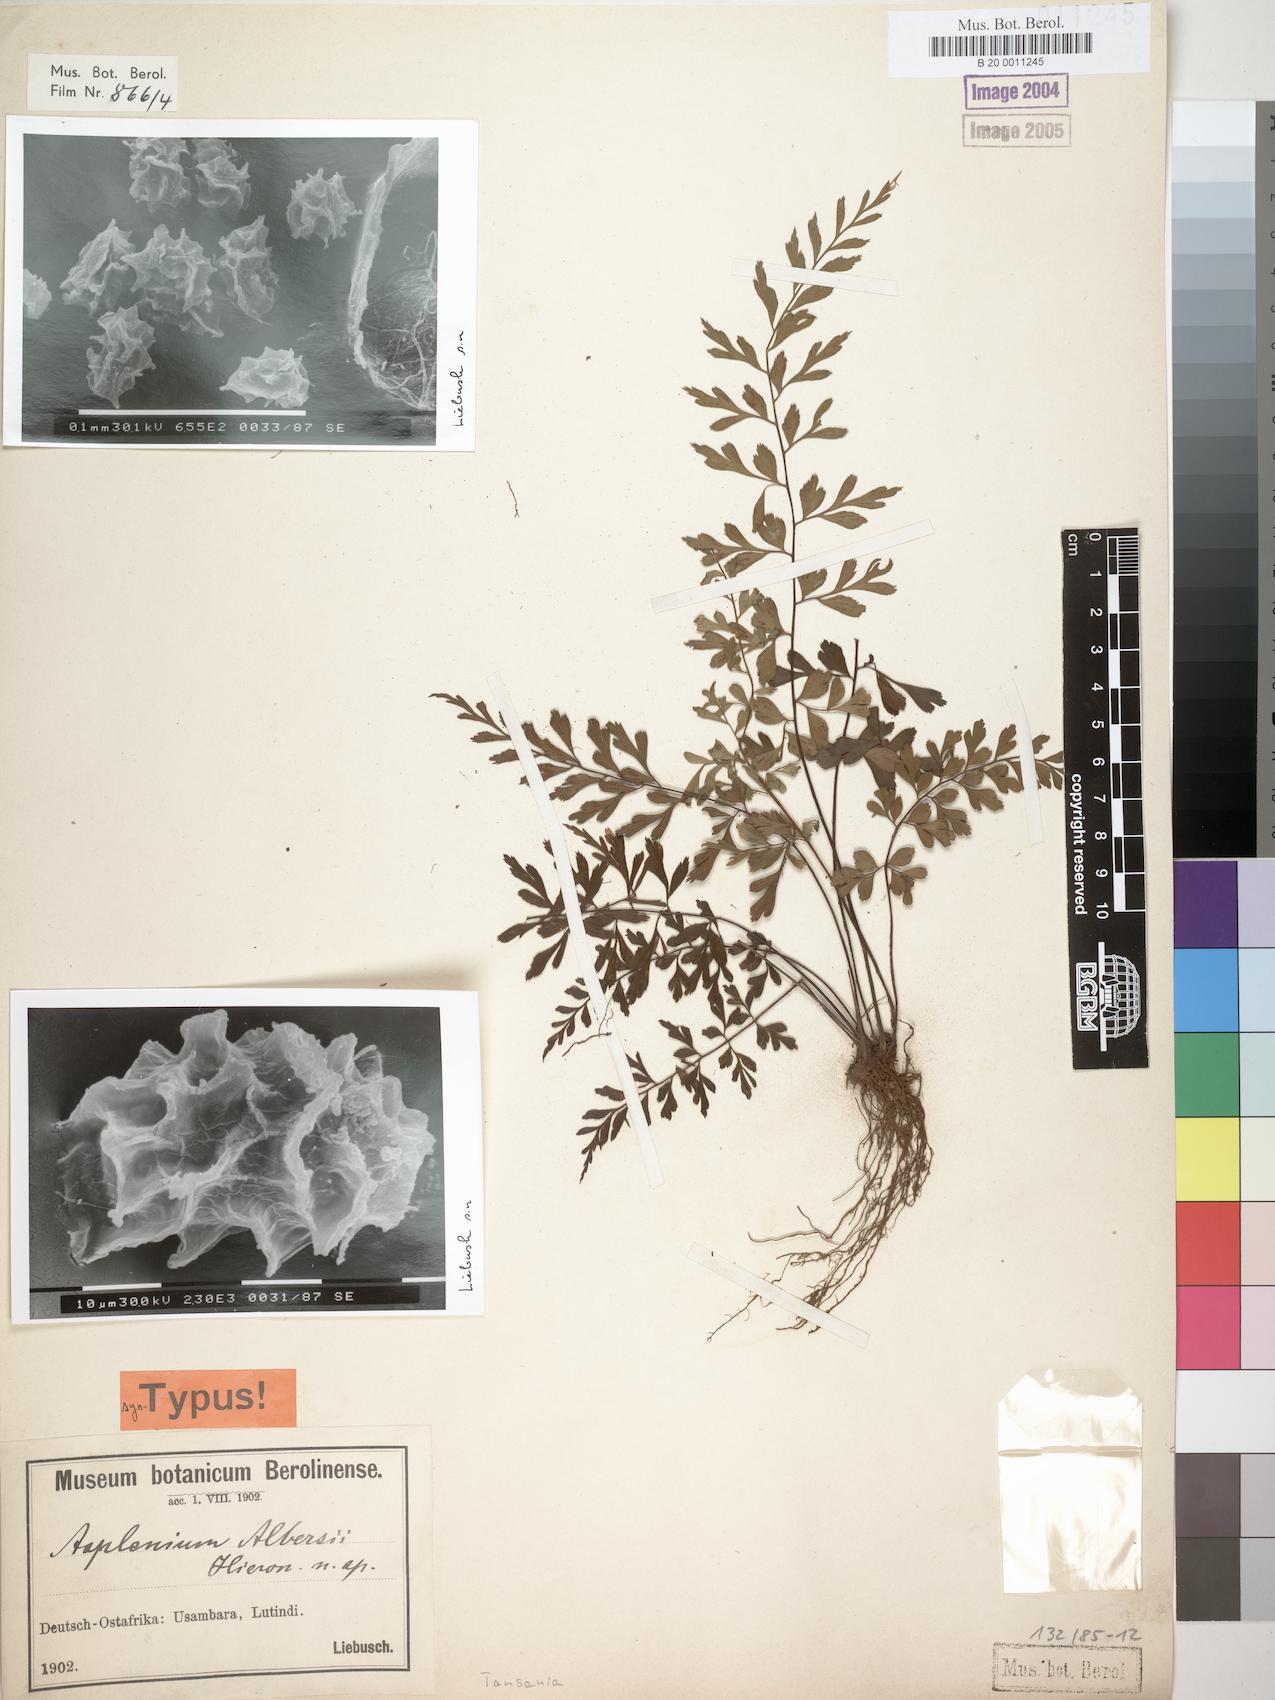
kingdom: Plantae
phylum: Tracheophyta
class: Polypodiopsida
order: Polypodiales
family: Aspleniaceae
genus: Asplenium
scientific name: Asplenium albersii
